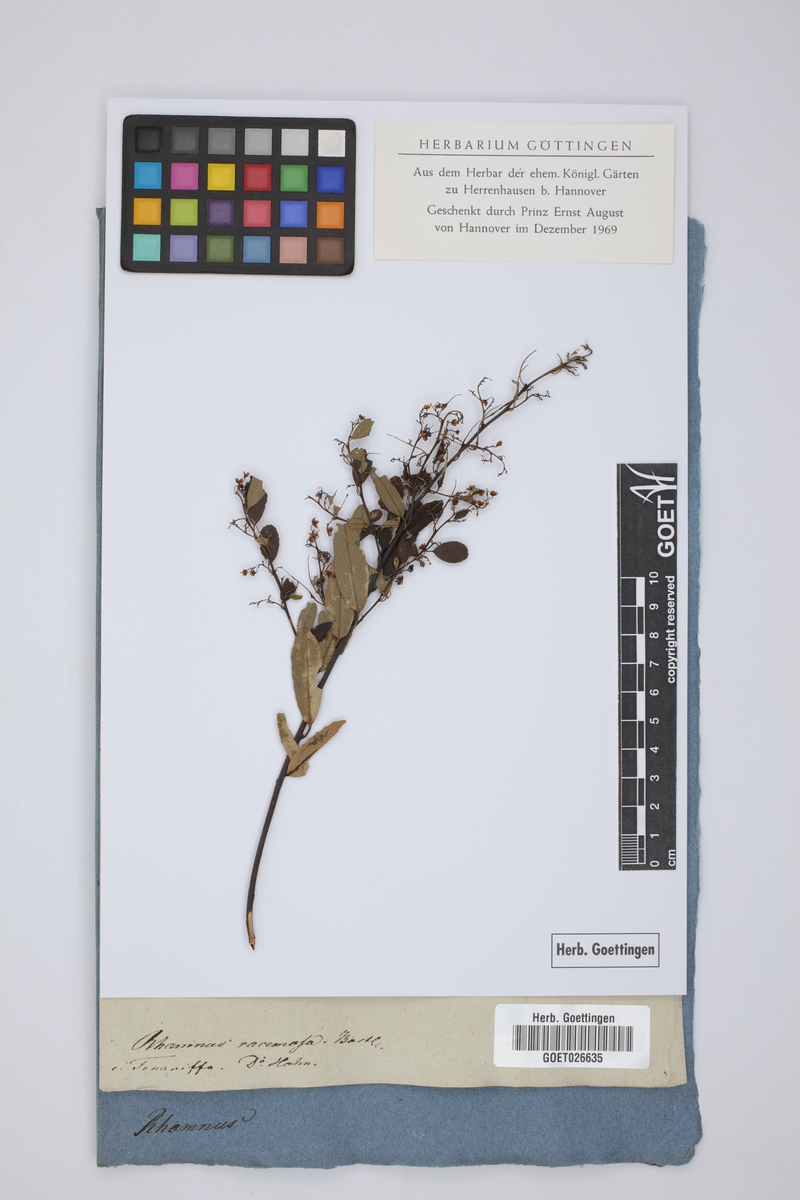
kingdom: Plantae
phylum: Tracheophyta
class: Magnoliopsida
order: Rosales
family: Rhamnaceae
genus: Rhamnus
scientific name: Rhamnus alaternus
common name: Mediterranean buckthorn
